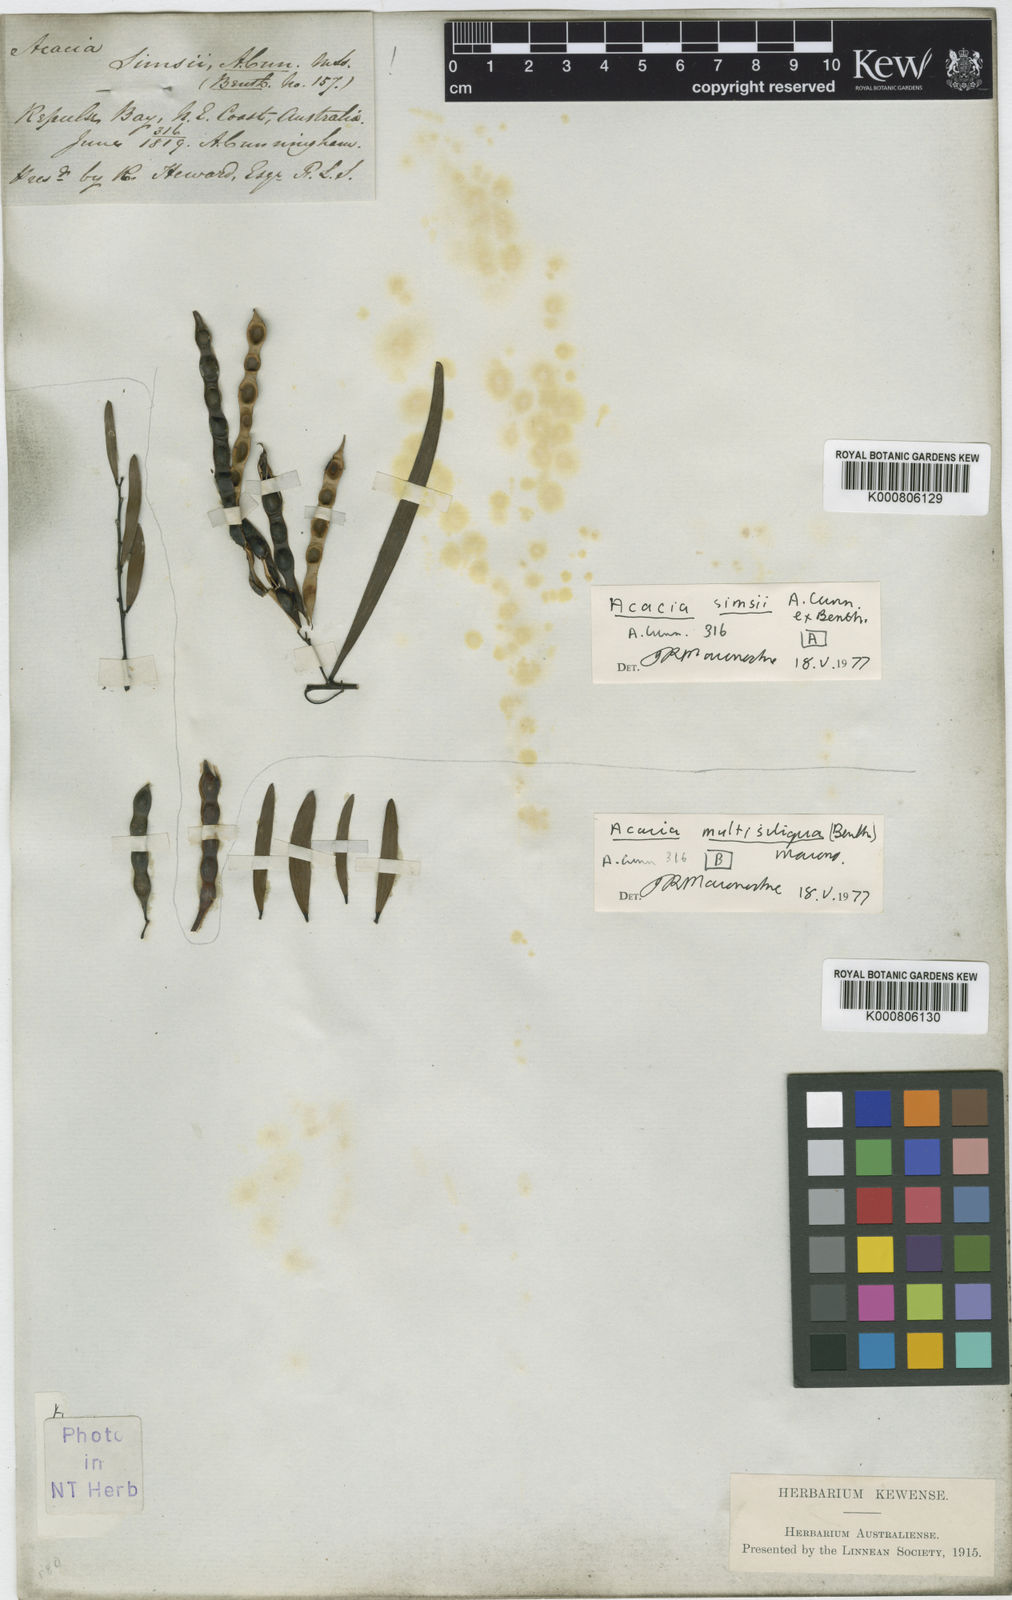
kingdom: Plantae
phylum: Tracheophyta
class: Magnoliopsida
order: Fabales
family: Fabaceae
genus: Acacia
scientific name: Acacia simsii
